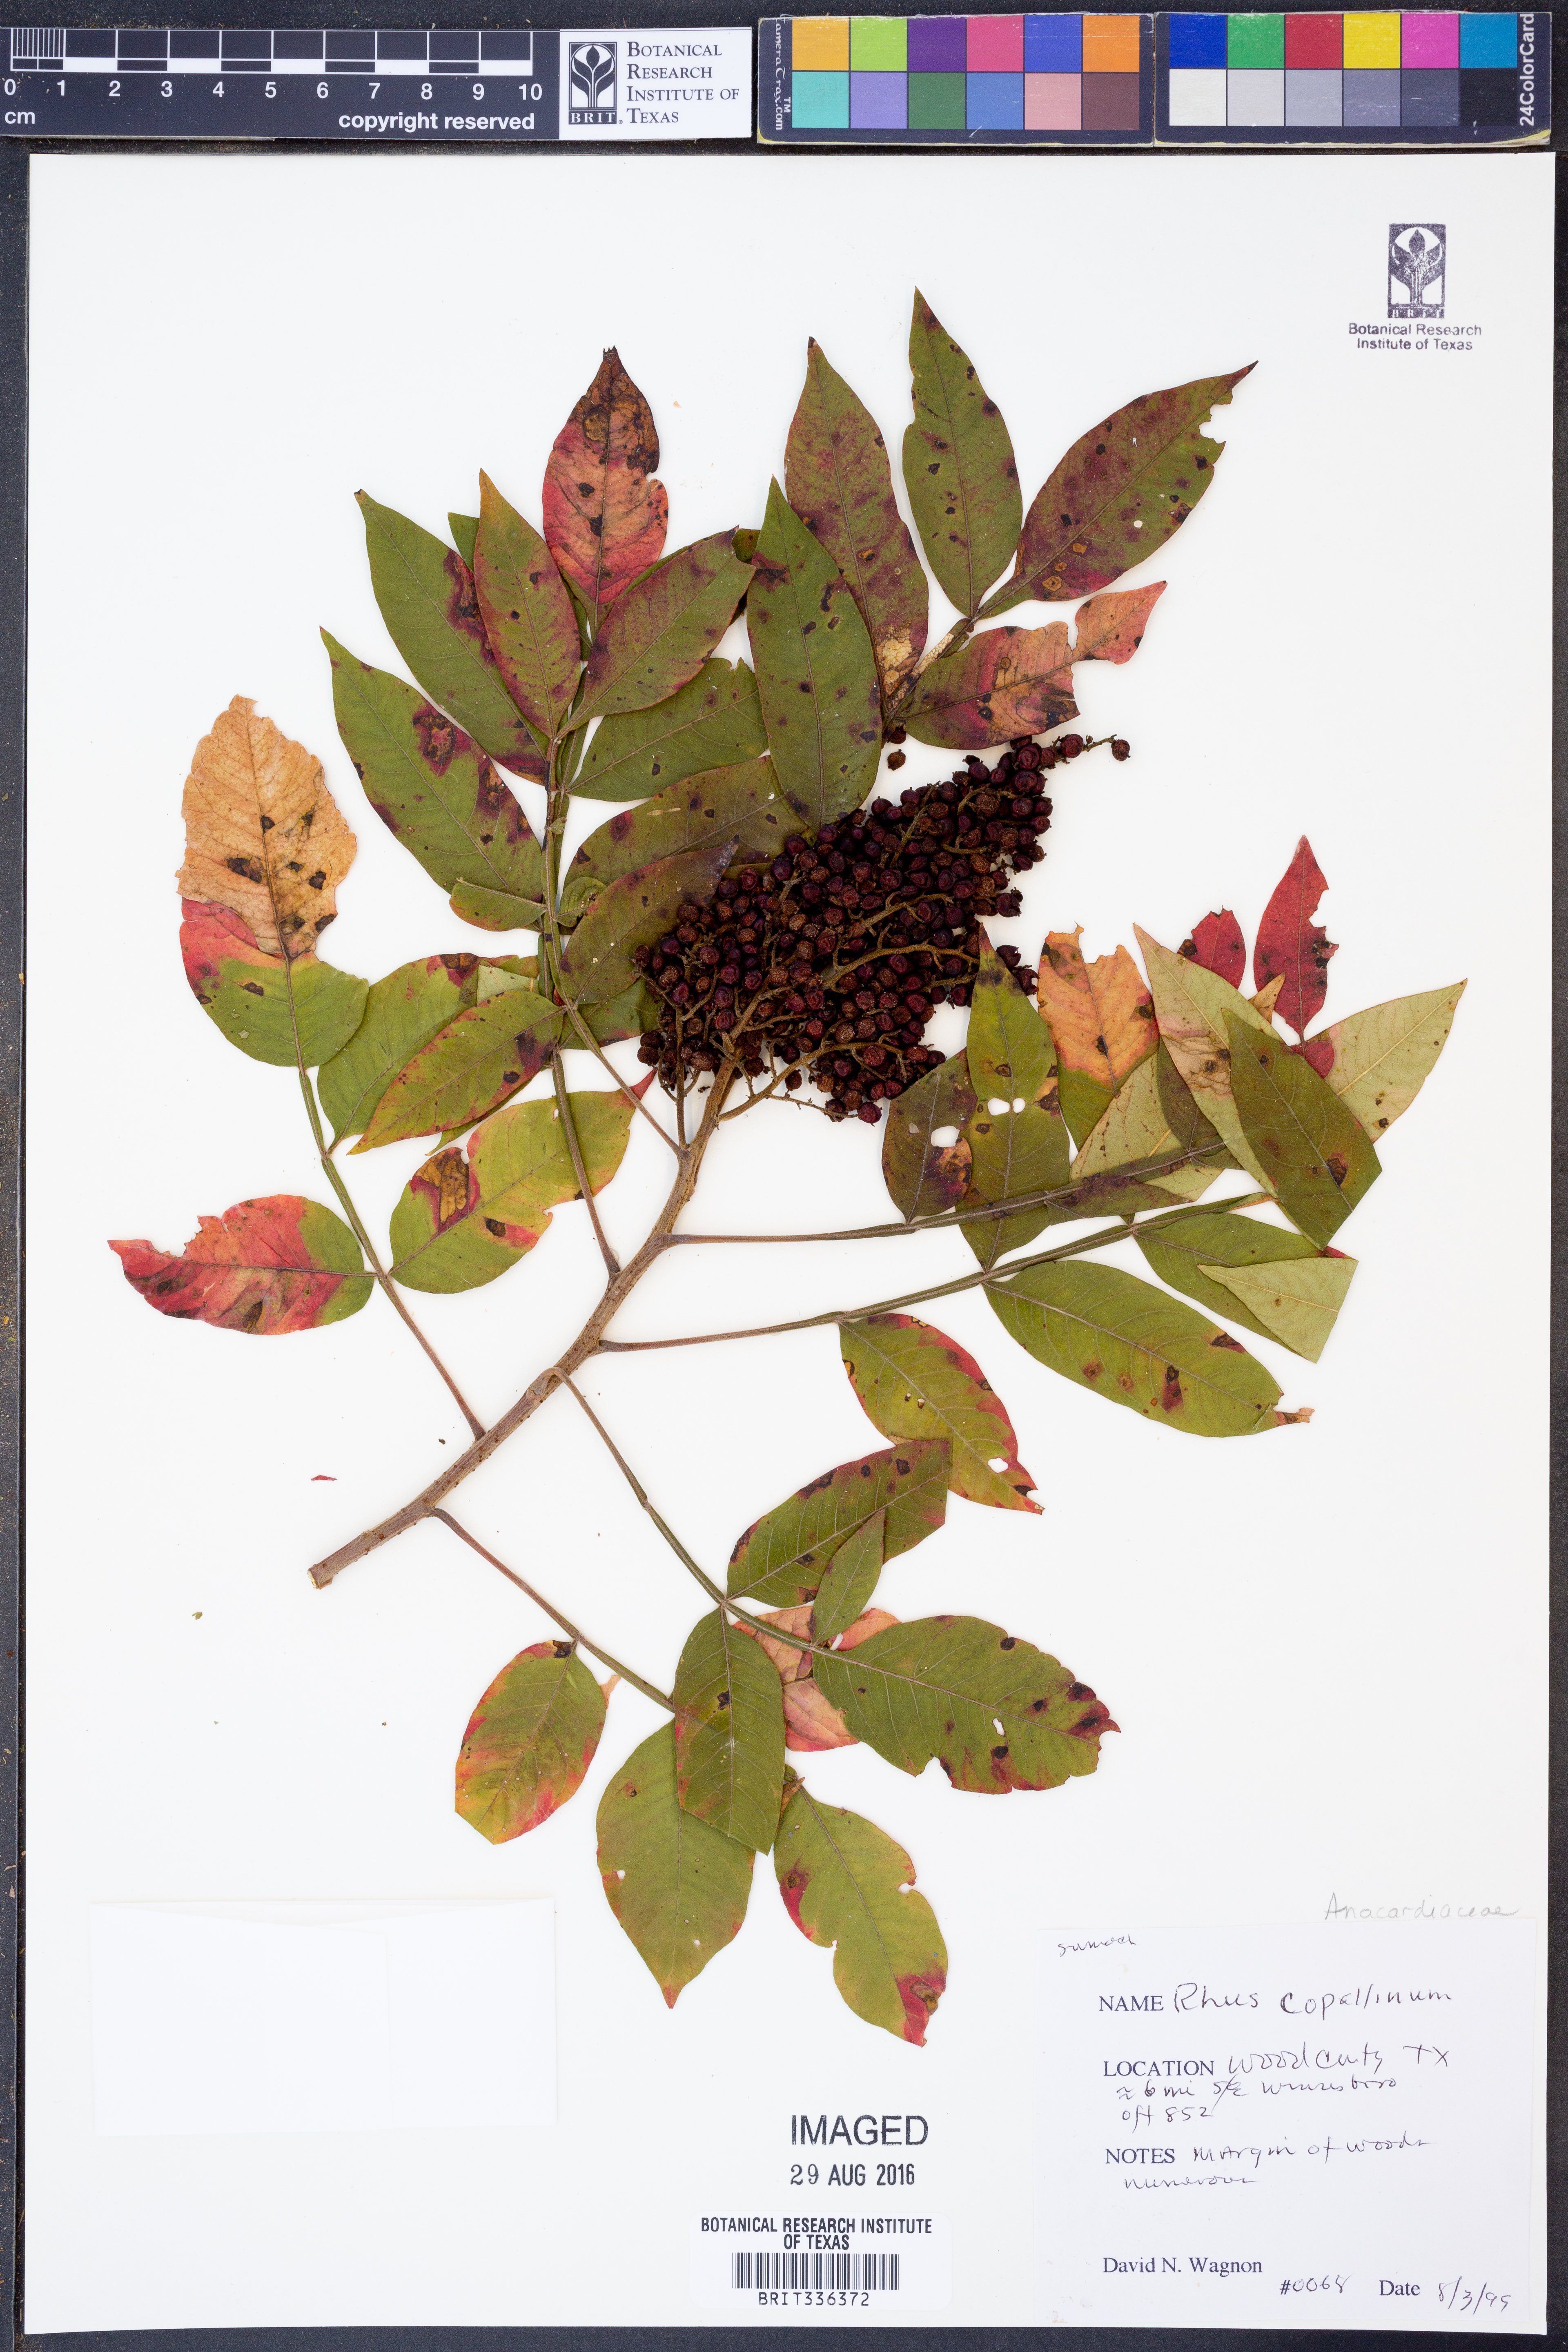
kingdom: Plantae
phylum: Tracheophyta
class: Magnoliopsida
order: Sapindales
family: Anacardiaceae
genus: Rhus
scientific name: Rhus copallina
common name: Shining sumac
